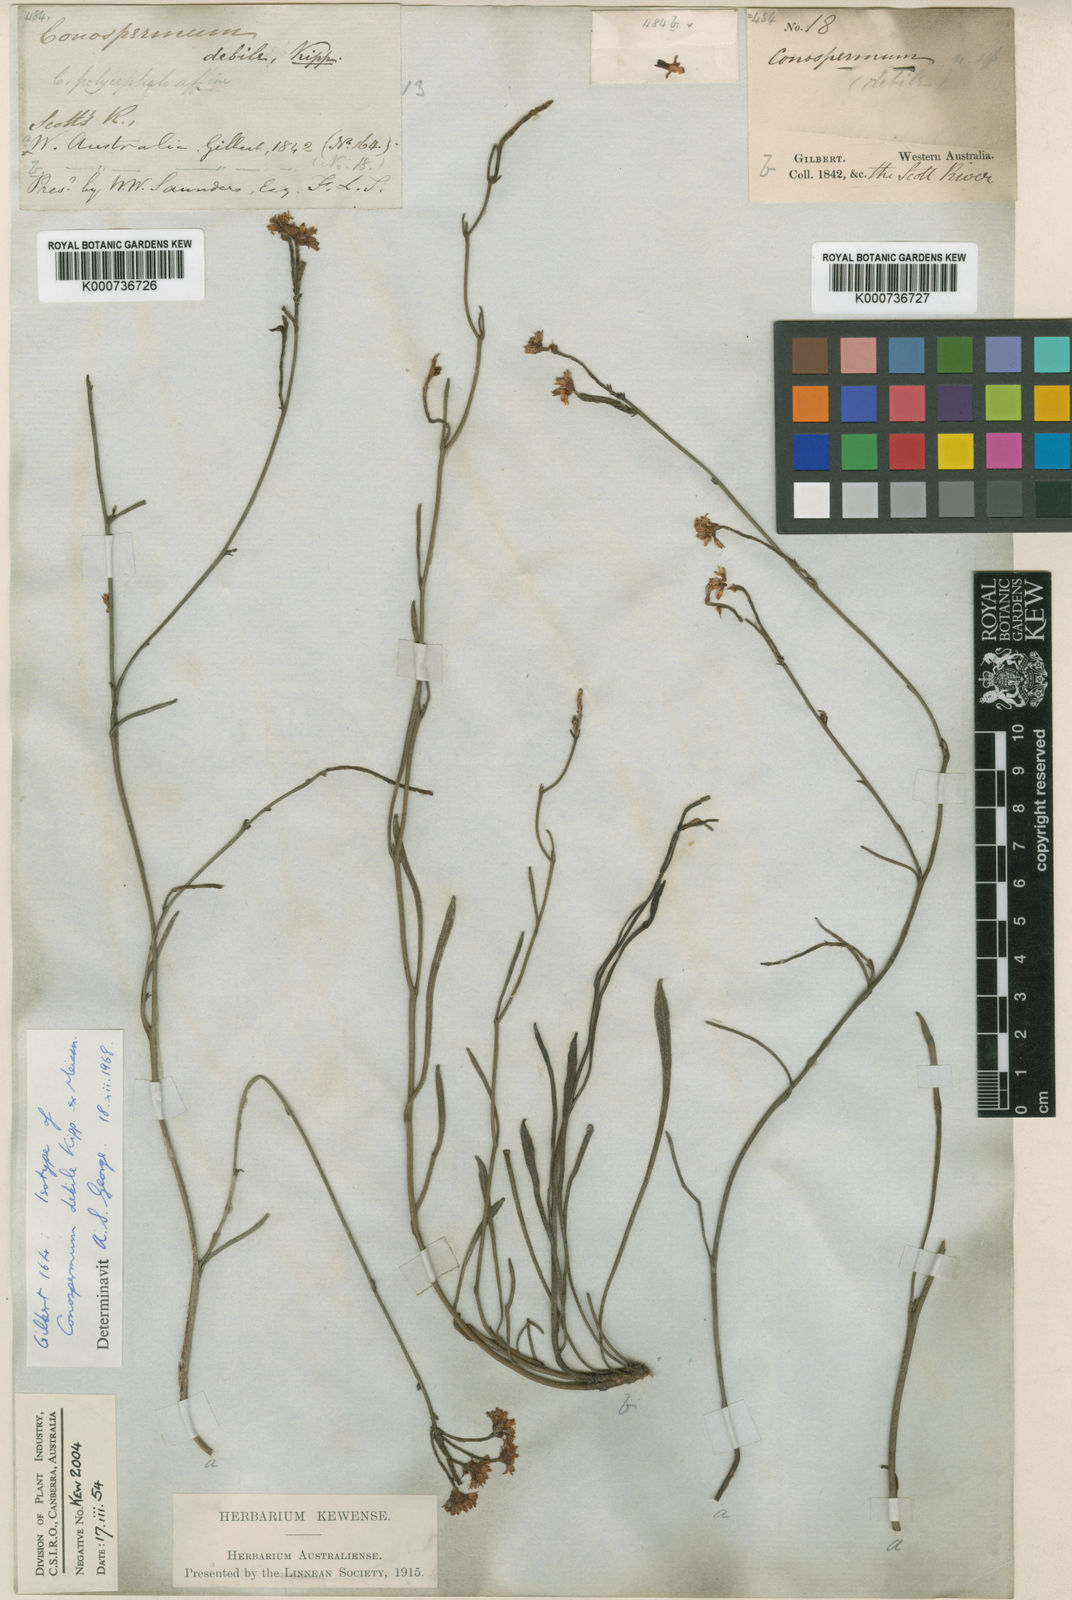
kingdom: Plantae
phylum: Tracheophyta
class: Magnoliopsida
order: Proteales
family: Proteaceae
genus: Conospermum
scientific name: Conospermum caeruleum
